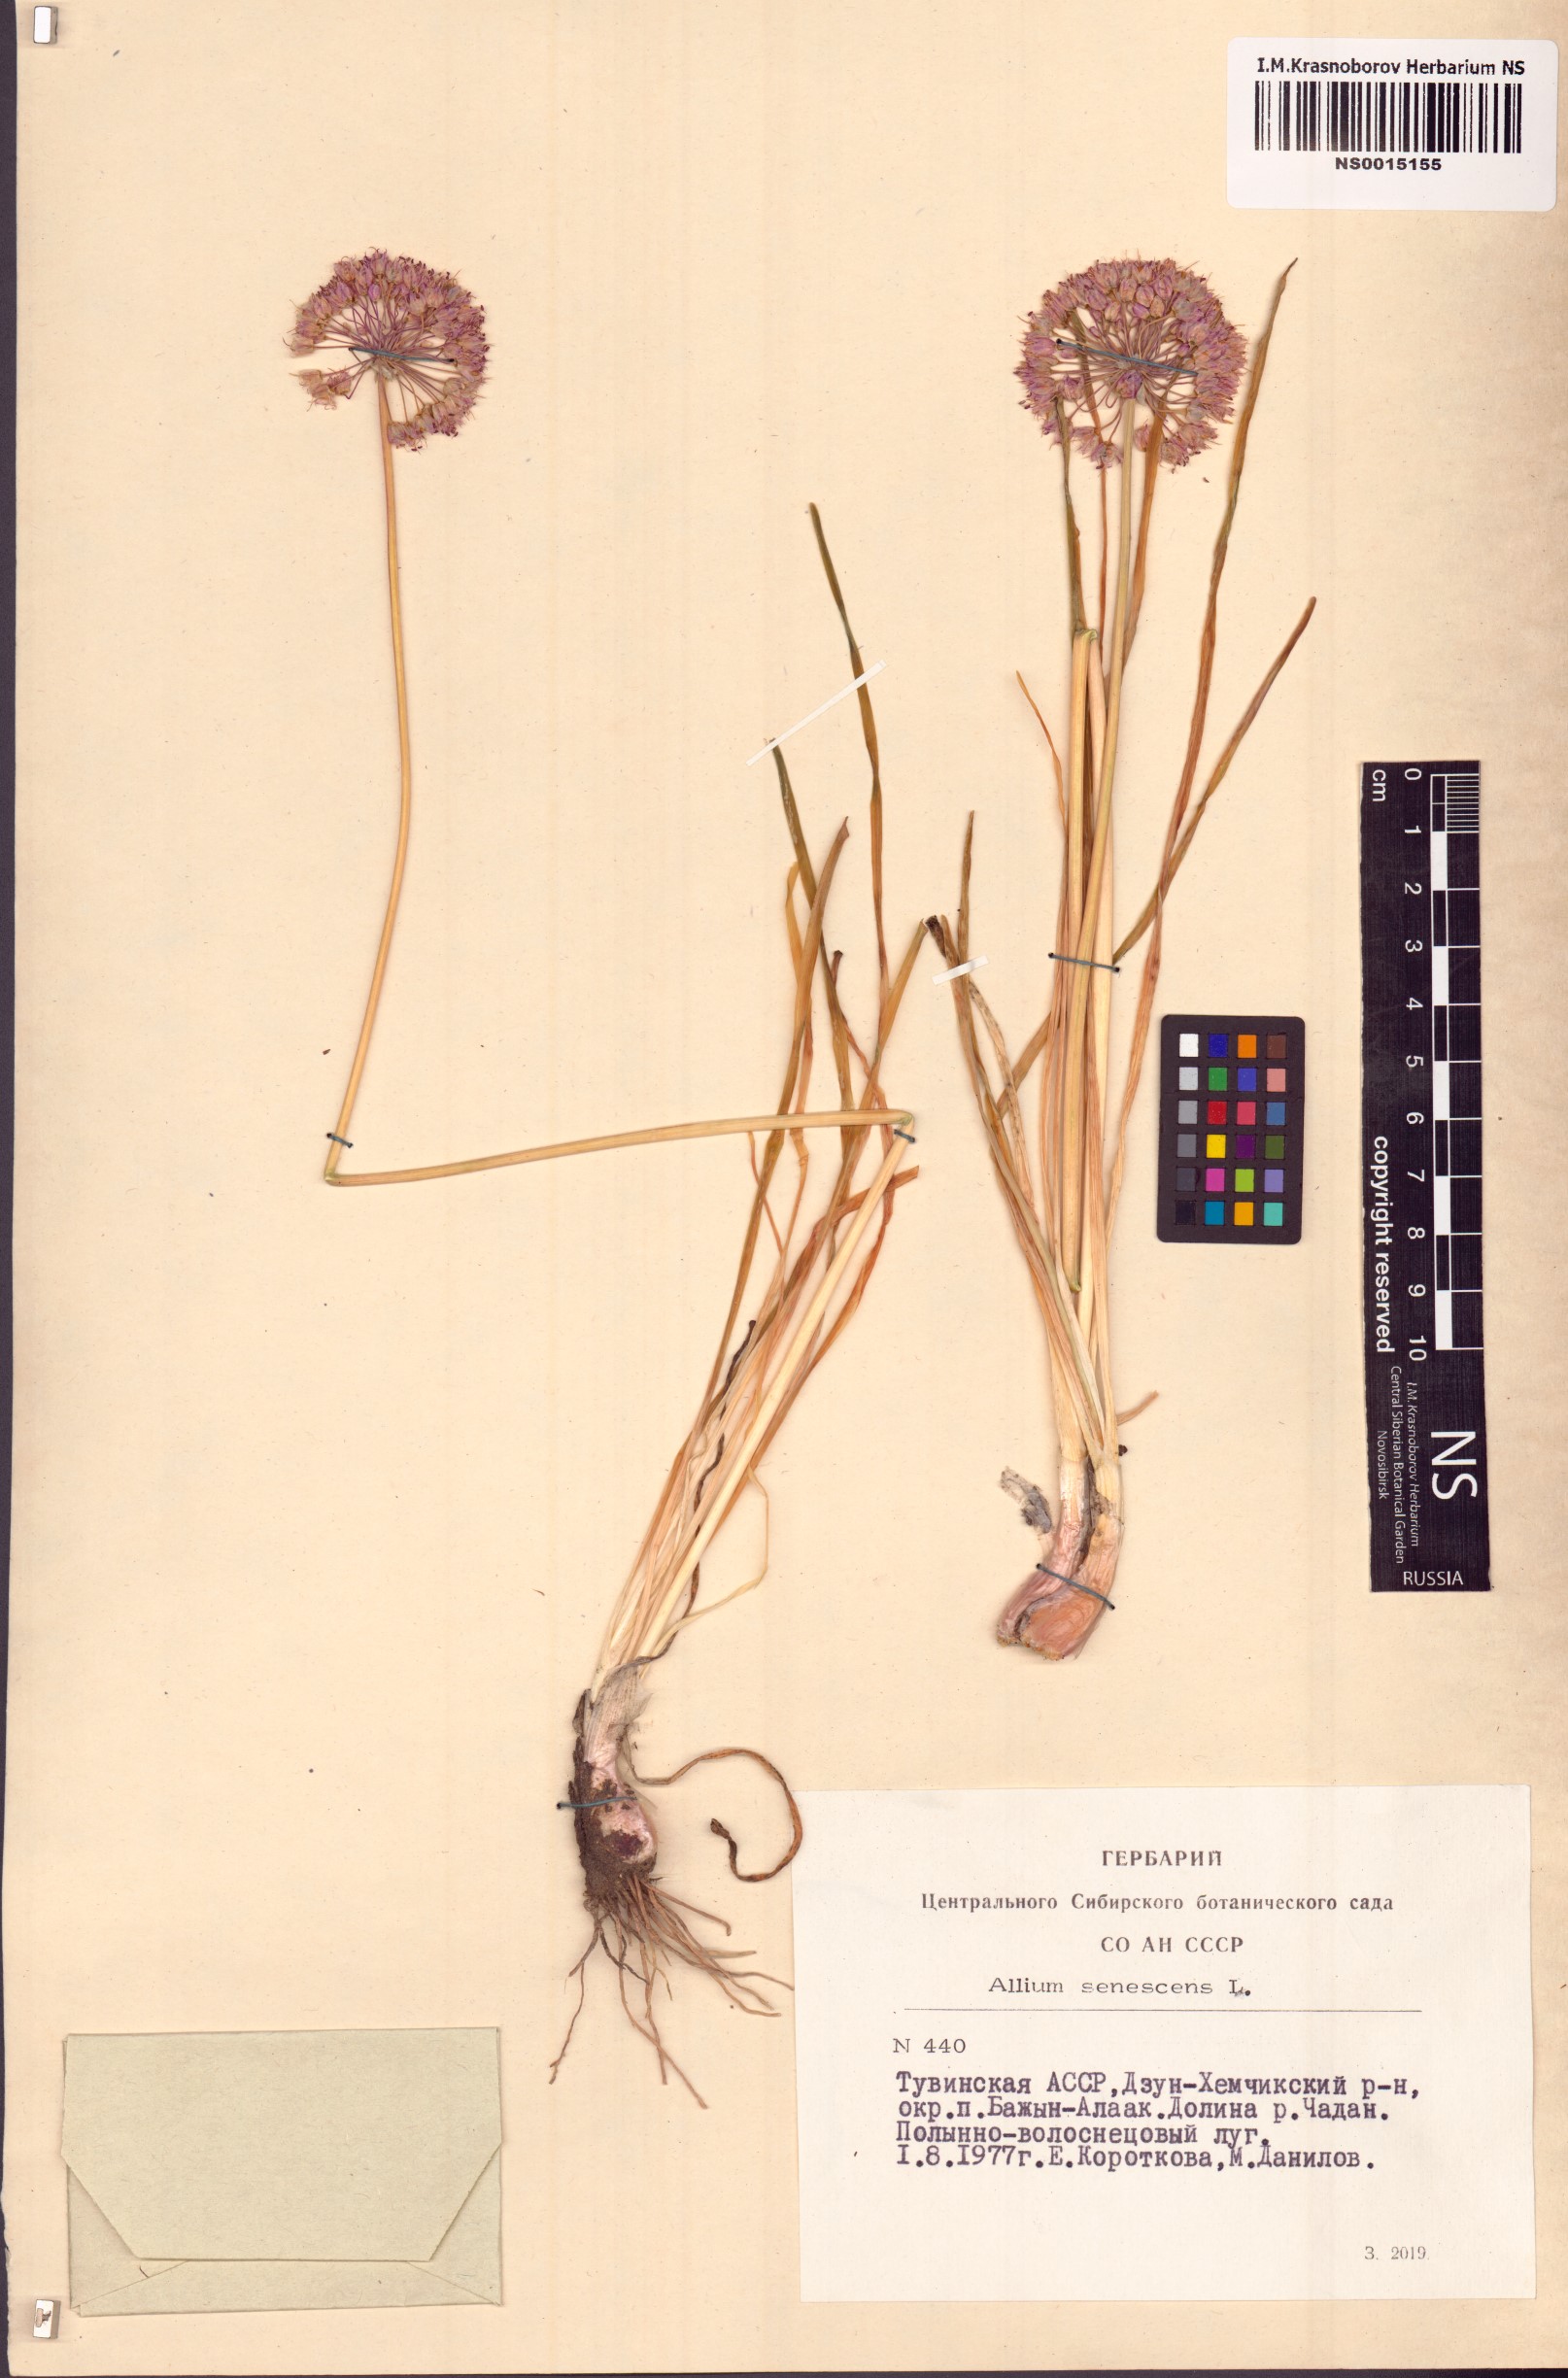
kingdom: Plantae
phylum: Tracheophyta
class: Liliopsida
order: Asparagales
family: Amaryllidaceae
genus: Allium
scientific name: Allium senescens
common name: German garlic
